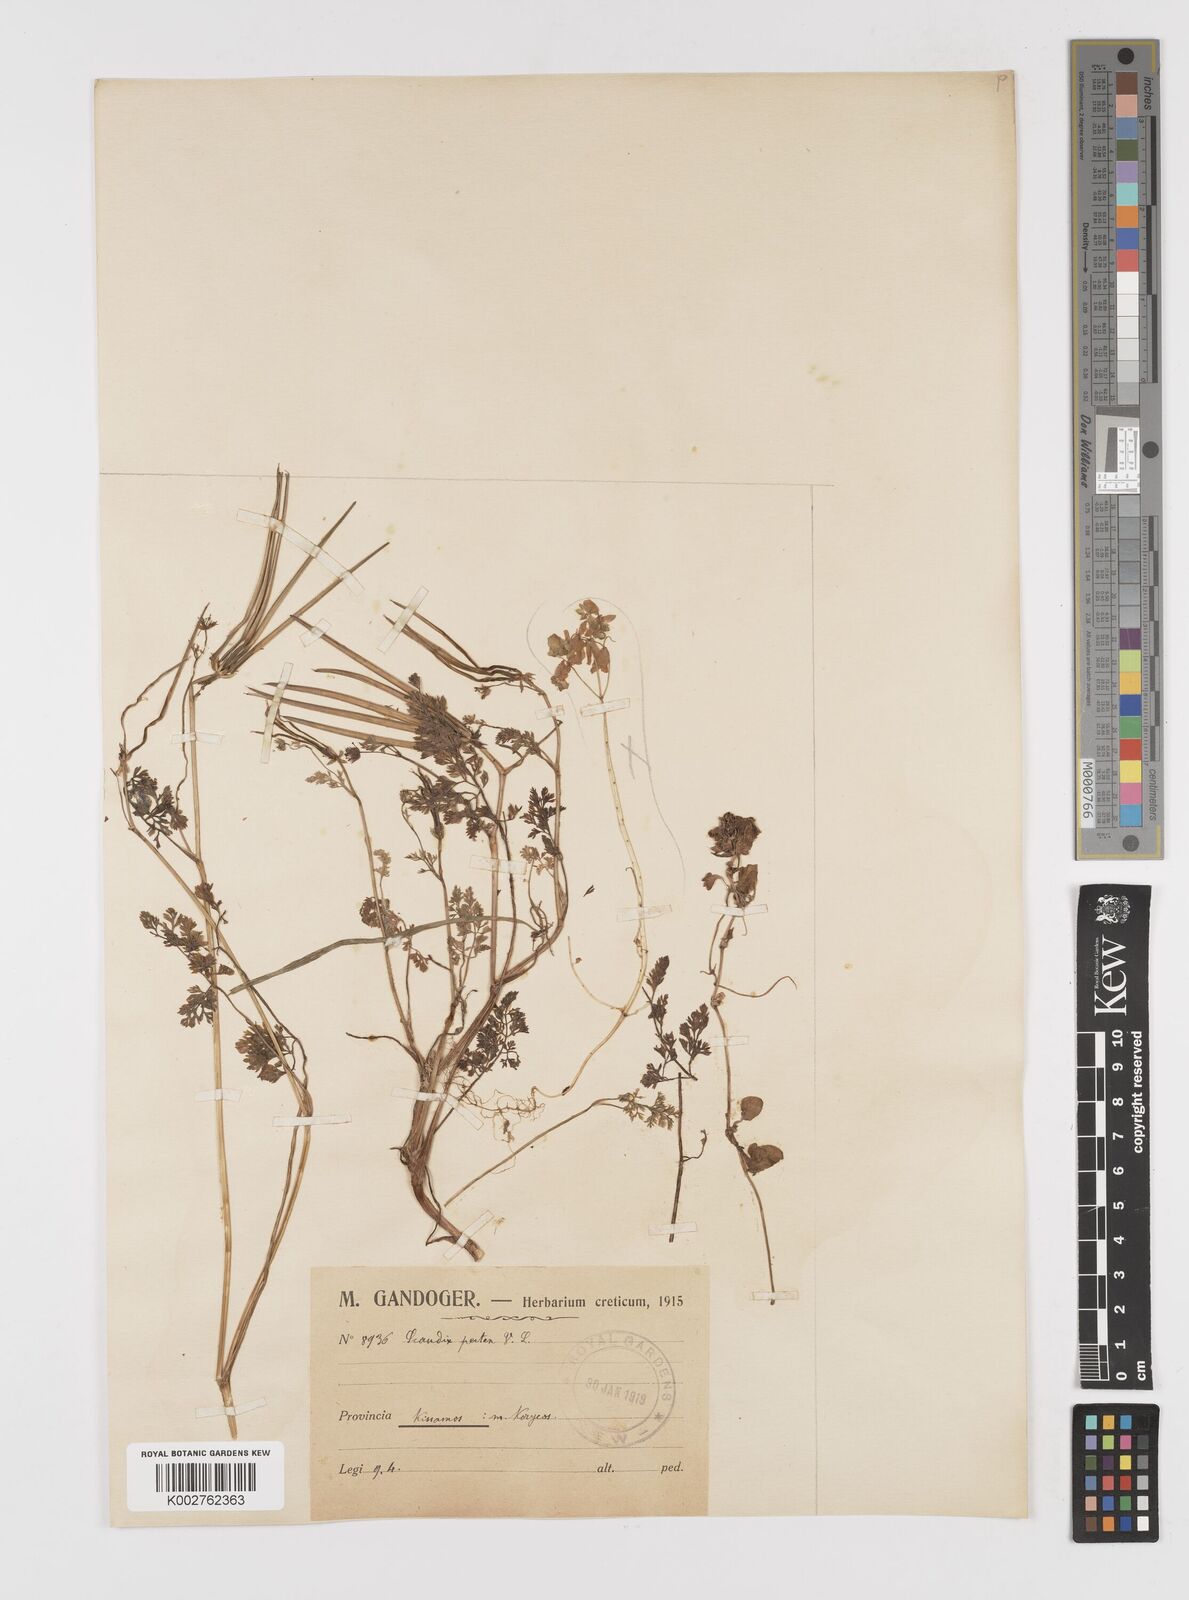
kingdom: Plantae
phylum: Tracheophyta
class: Magnoliopsida
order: Apiales
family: Apiaceae
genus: Scandix
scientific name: Scandix pecten-veneris
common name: Shepherd's-needle
